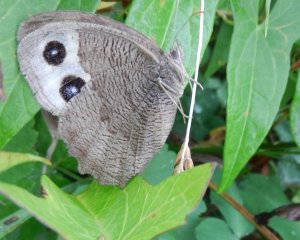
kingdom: Animalia
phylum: Arthropoda
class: Insecta
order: Lepidoptera
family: Nymphalidae
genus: Cercyonis
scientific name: Cercyonis pegala
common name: Common Wood-Nymph
